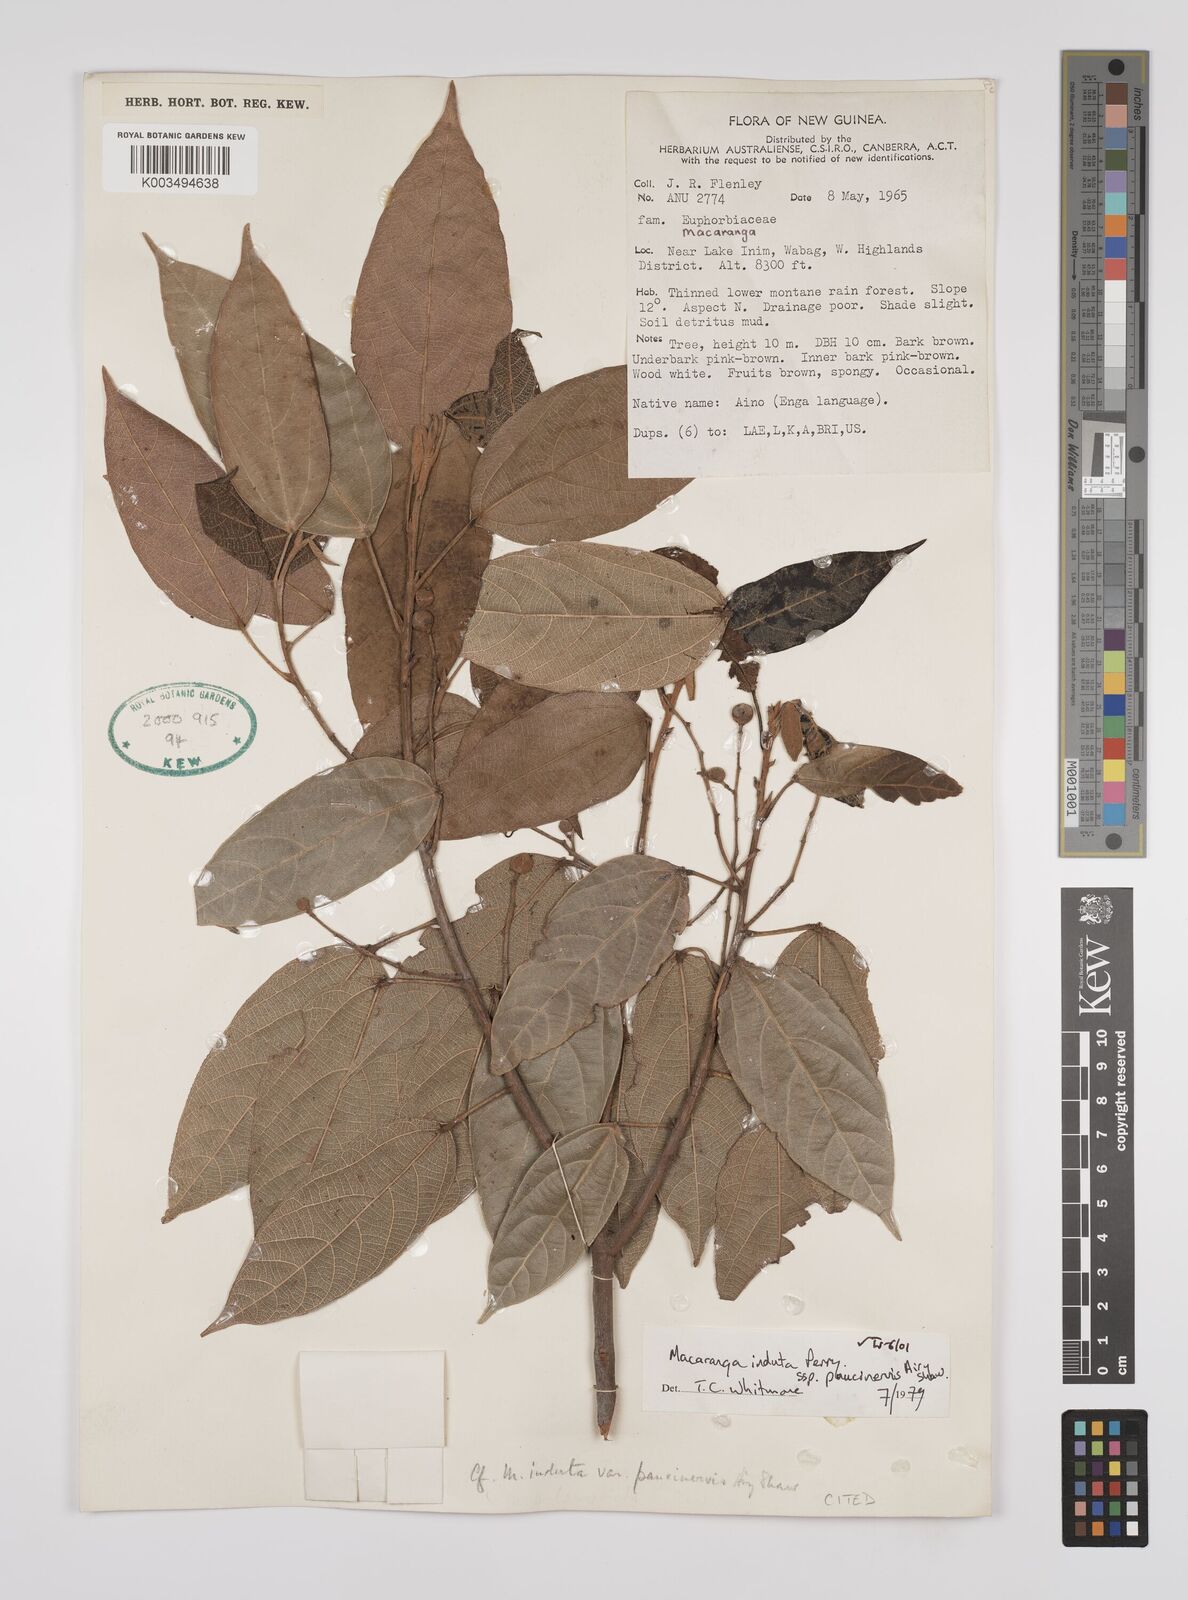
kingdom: Plantae
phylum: Tracheophyta
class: Magnoliopsida
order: Malpighiales
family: Euphorbiaceae
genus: Macaranga
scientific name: Macaranga induta
